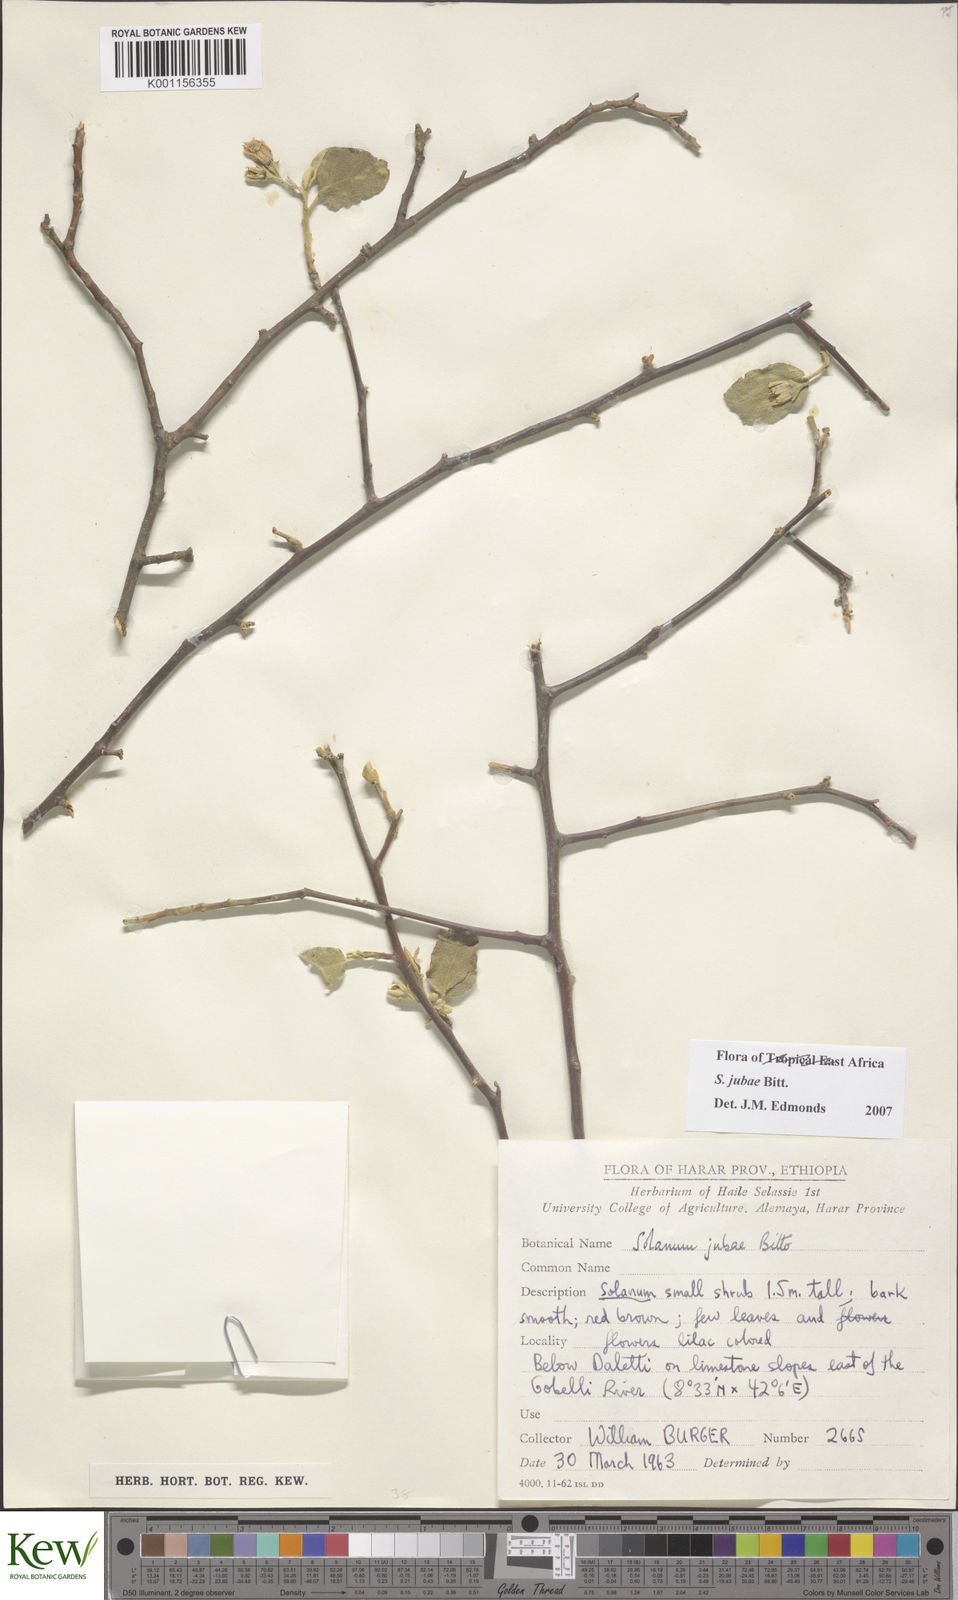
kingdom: Plantae
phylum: Tracheophyta
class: Magnoliopsida
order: Solanales
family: Solanaceae
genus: Solanum
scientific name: Solanum jubae
